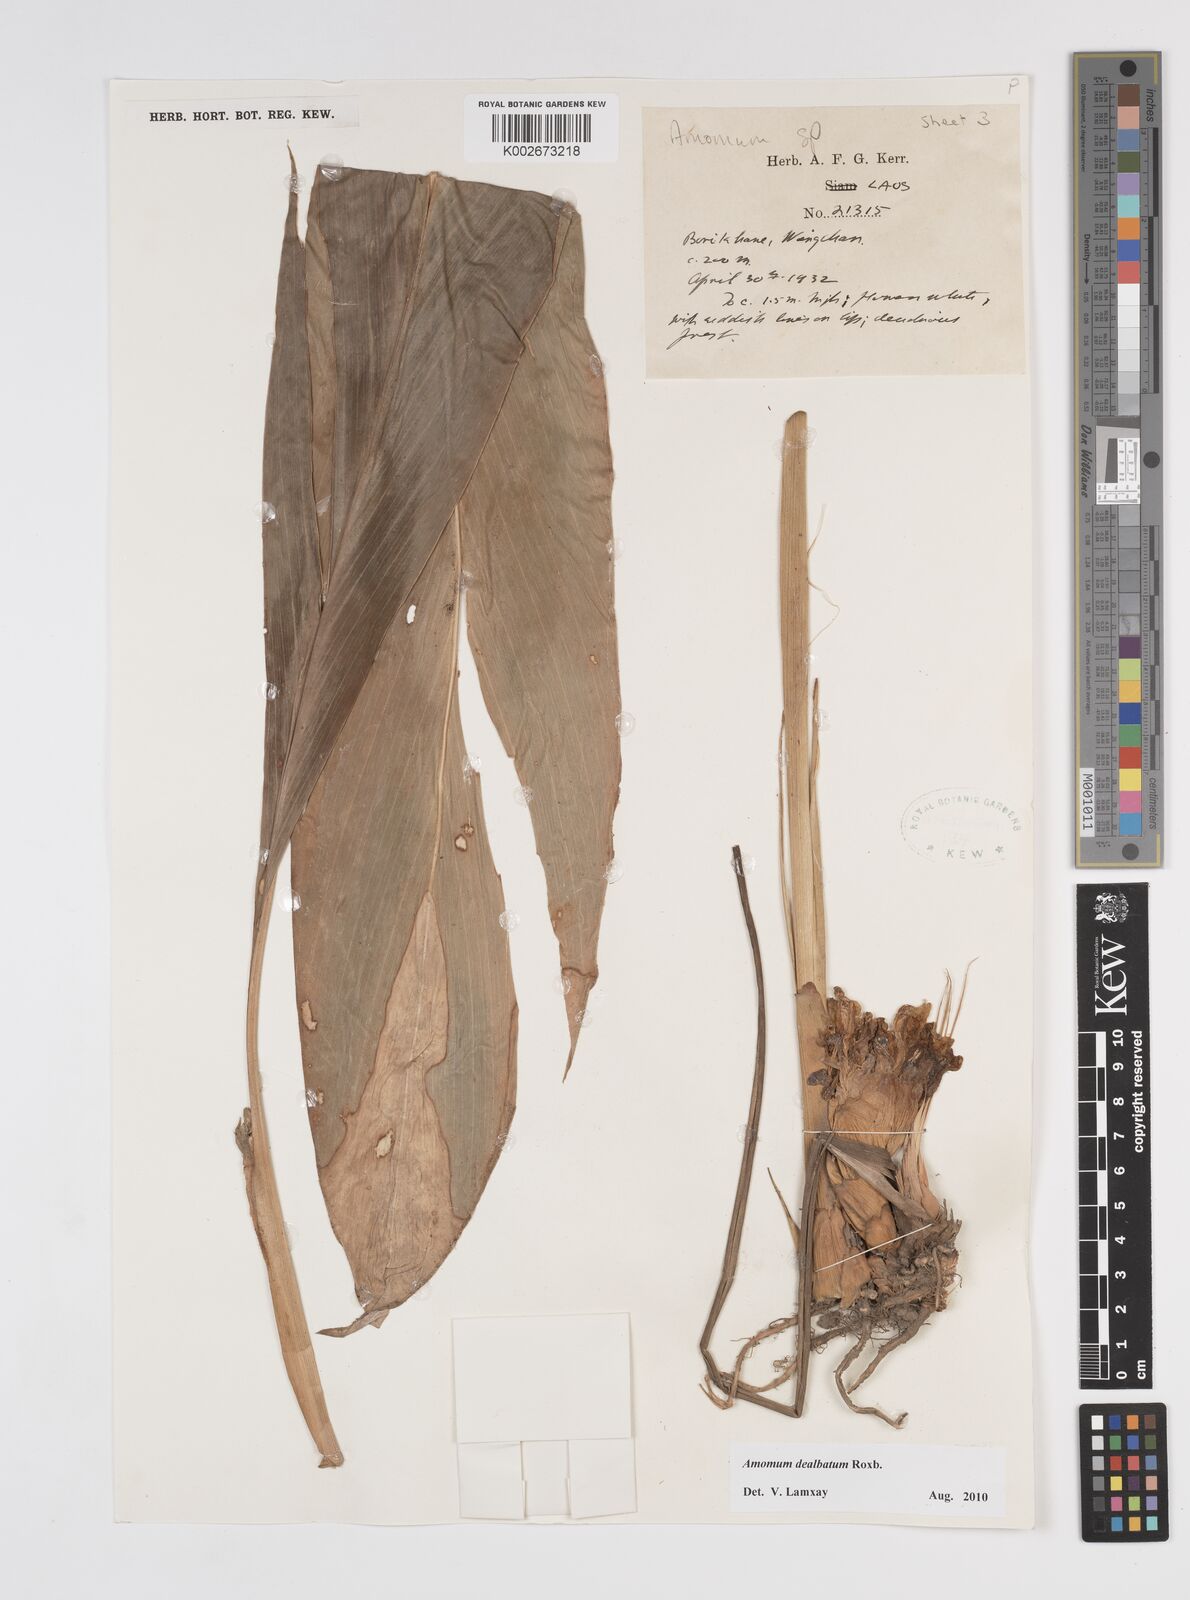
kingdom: Plantae
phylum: Tracheophyta
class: Liliopsida
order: Zingiberales
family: Zingiberaceae
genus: Amomum
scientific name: Amomum dealbatum
